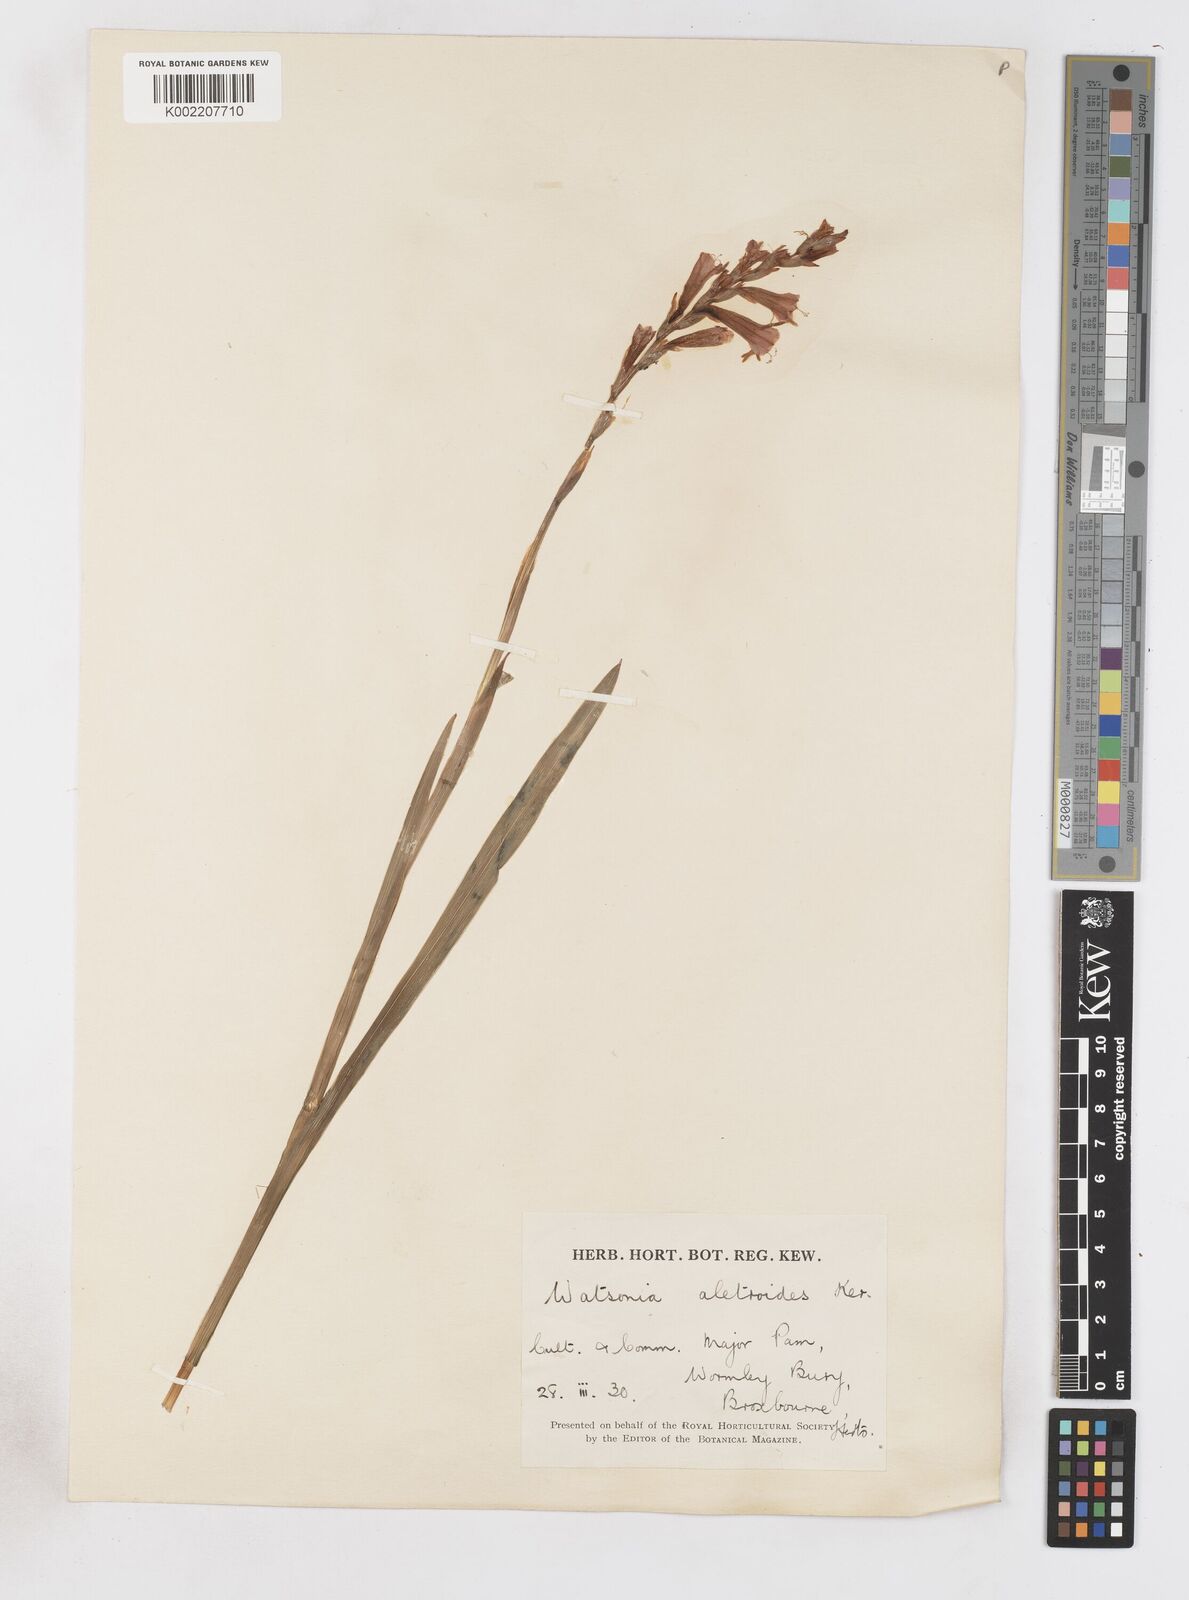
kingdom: Plantae
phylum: Tracheophyta
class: Liliopsida
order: Asparagales
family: Iridaceae
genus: Watsonia
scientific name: Watsonia aletroides
